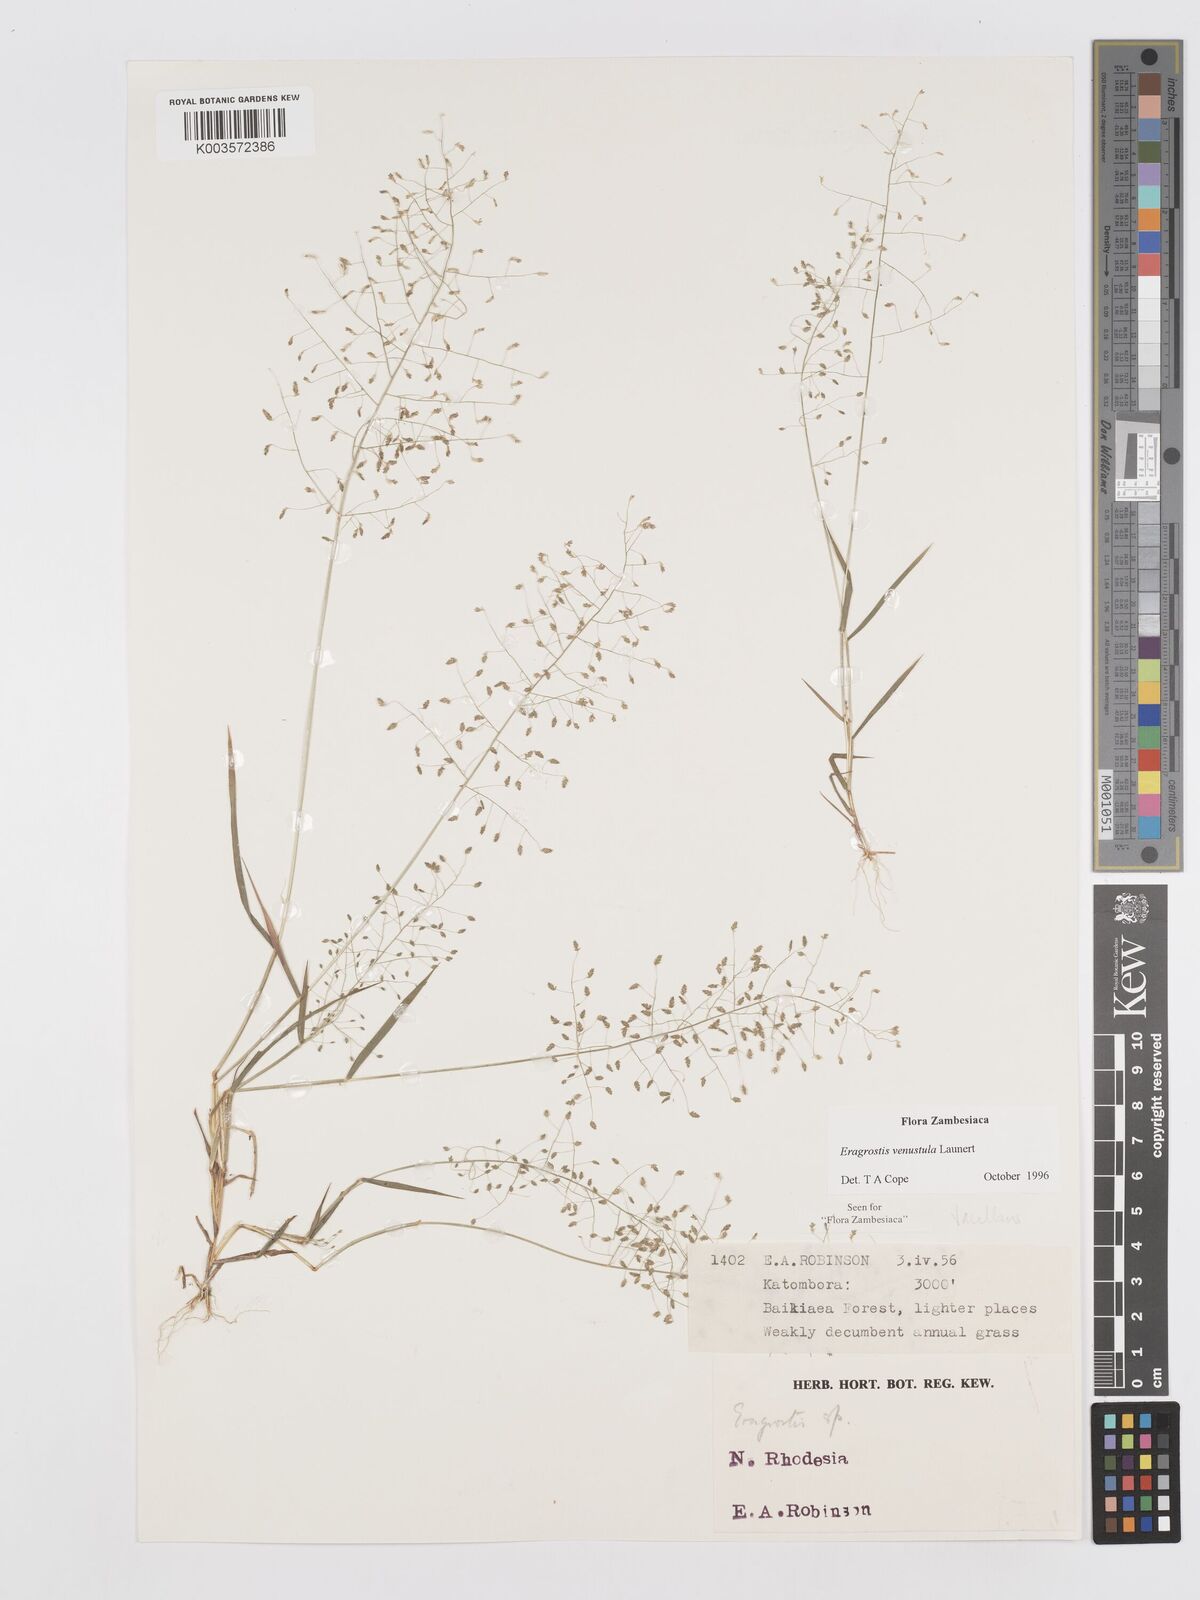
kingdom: Plantae
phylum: Tracheophyta
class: Liliopsida
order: Poales
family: Poaceae
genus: Eragrostis
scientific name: Eragrostis venustula
